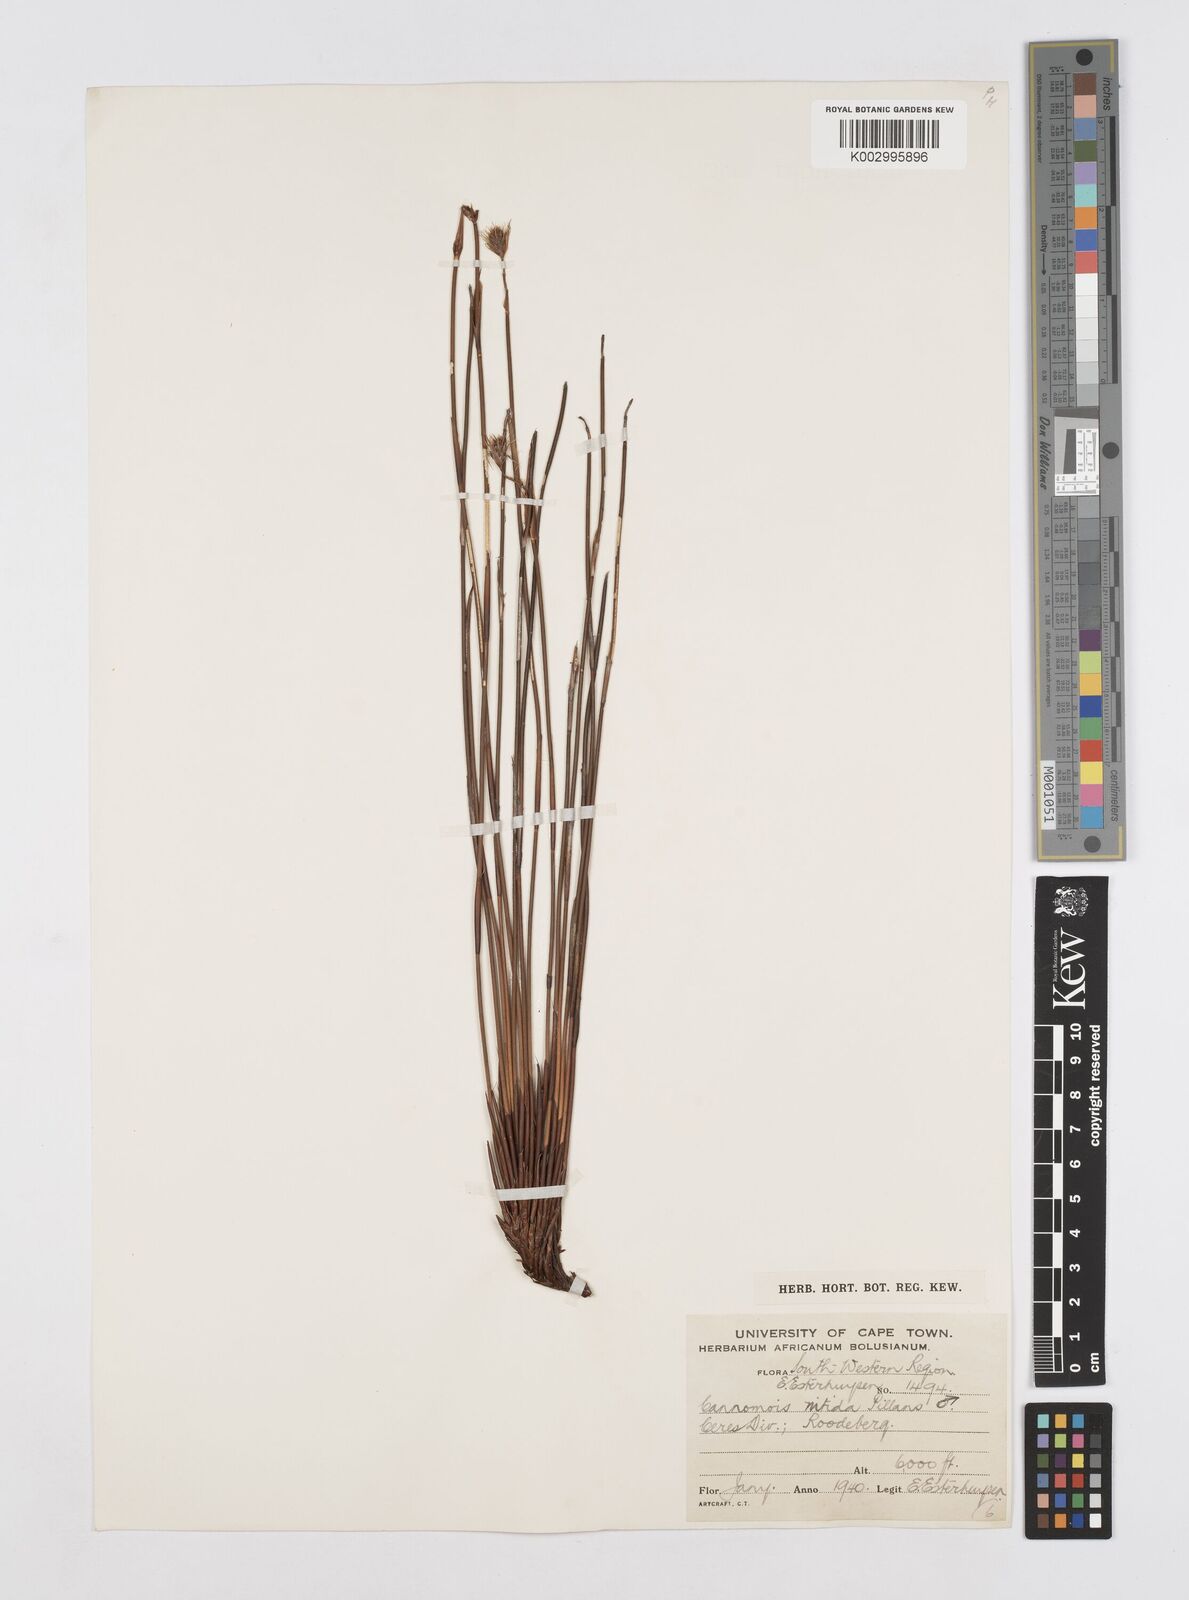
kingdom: Plantae
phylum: Tracheophyta
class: Liliopsida
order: Poales
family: Restionaceae
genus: Cannomois
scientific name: Cannomois nitida
